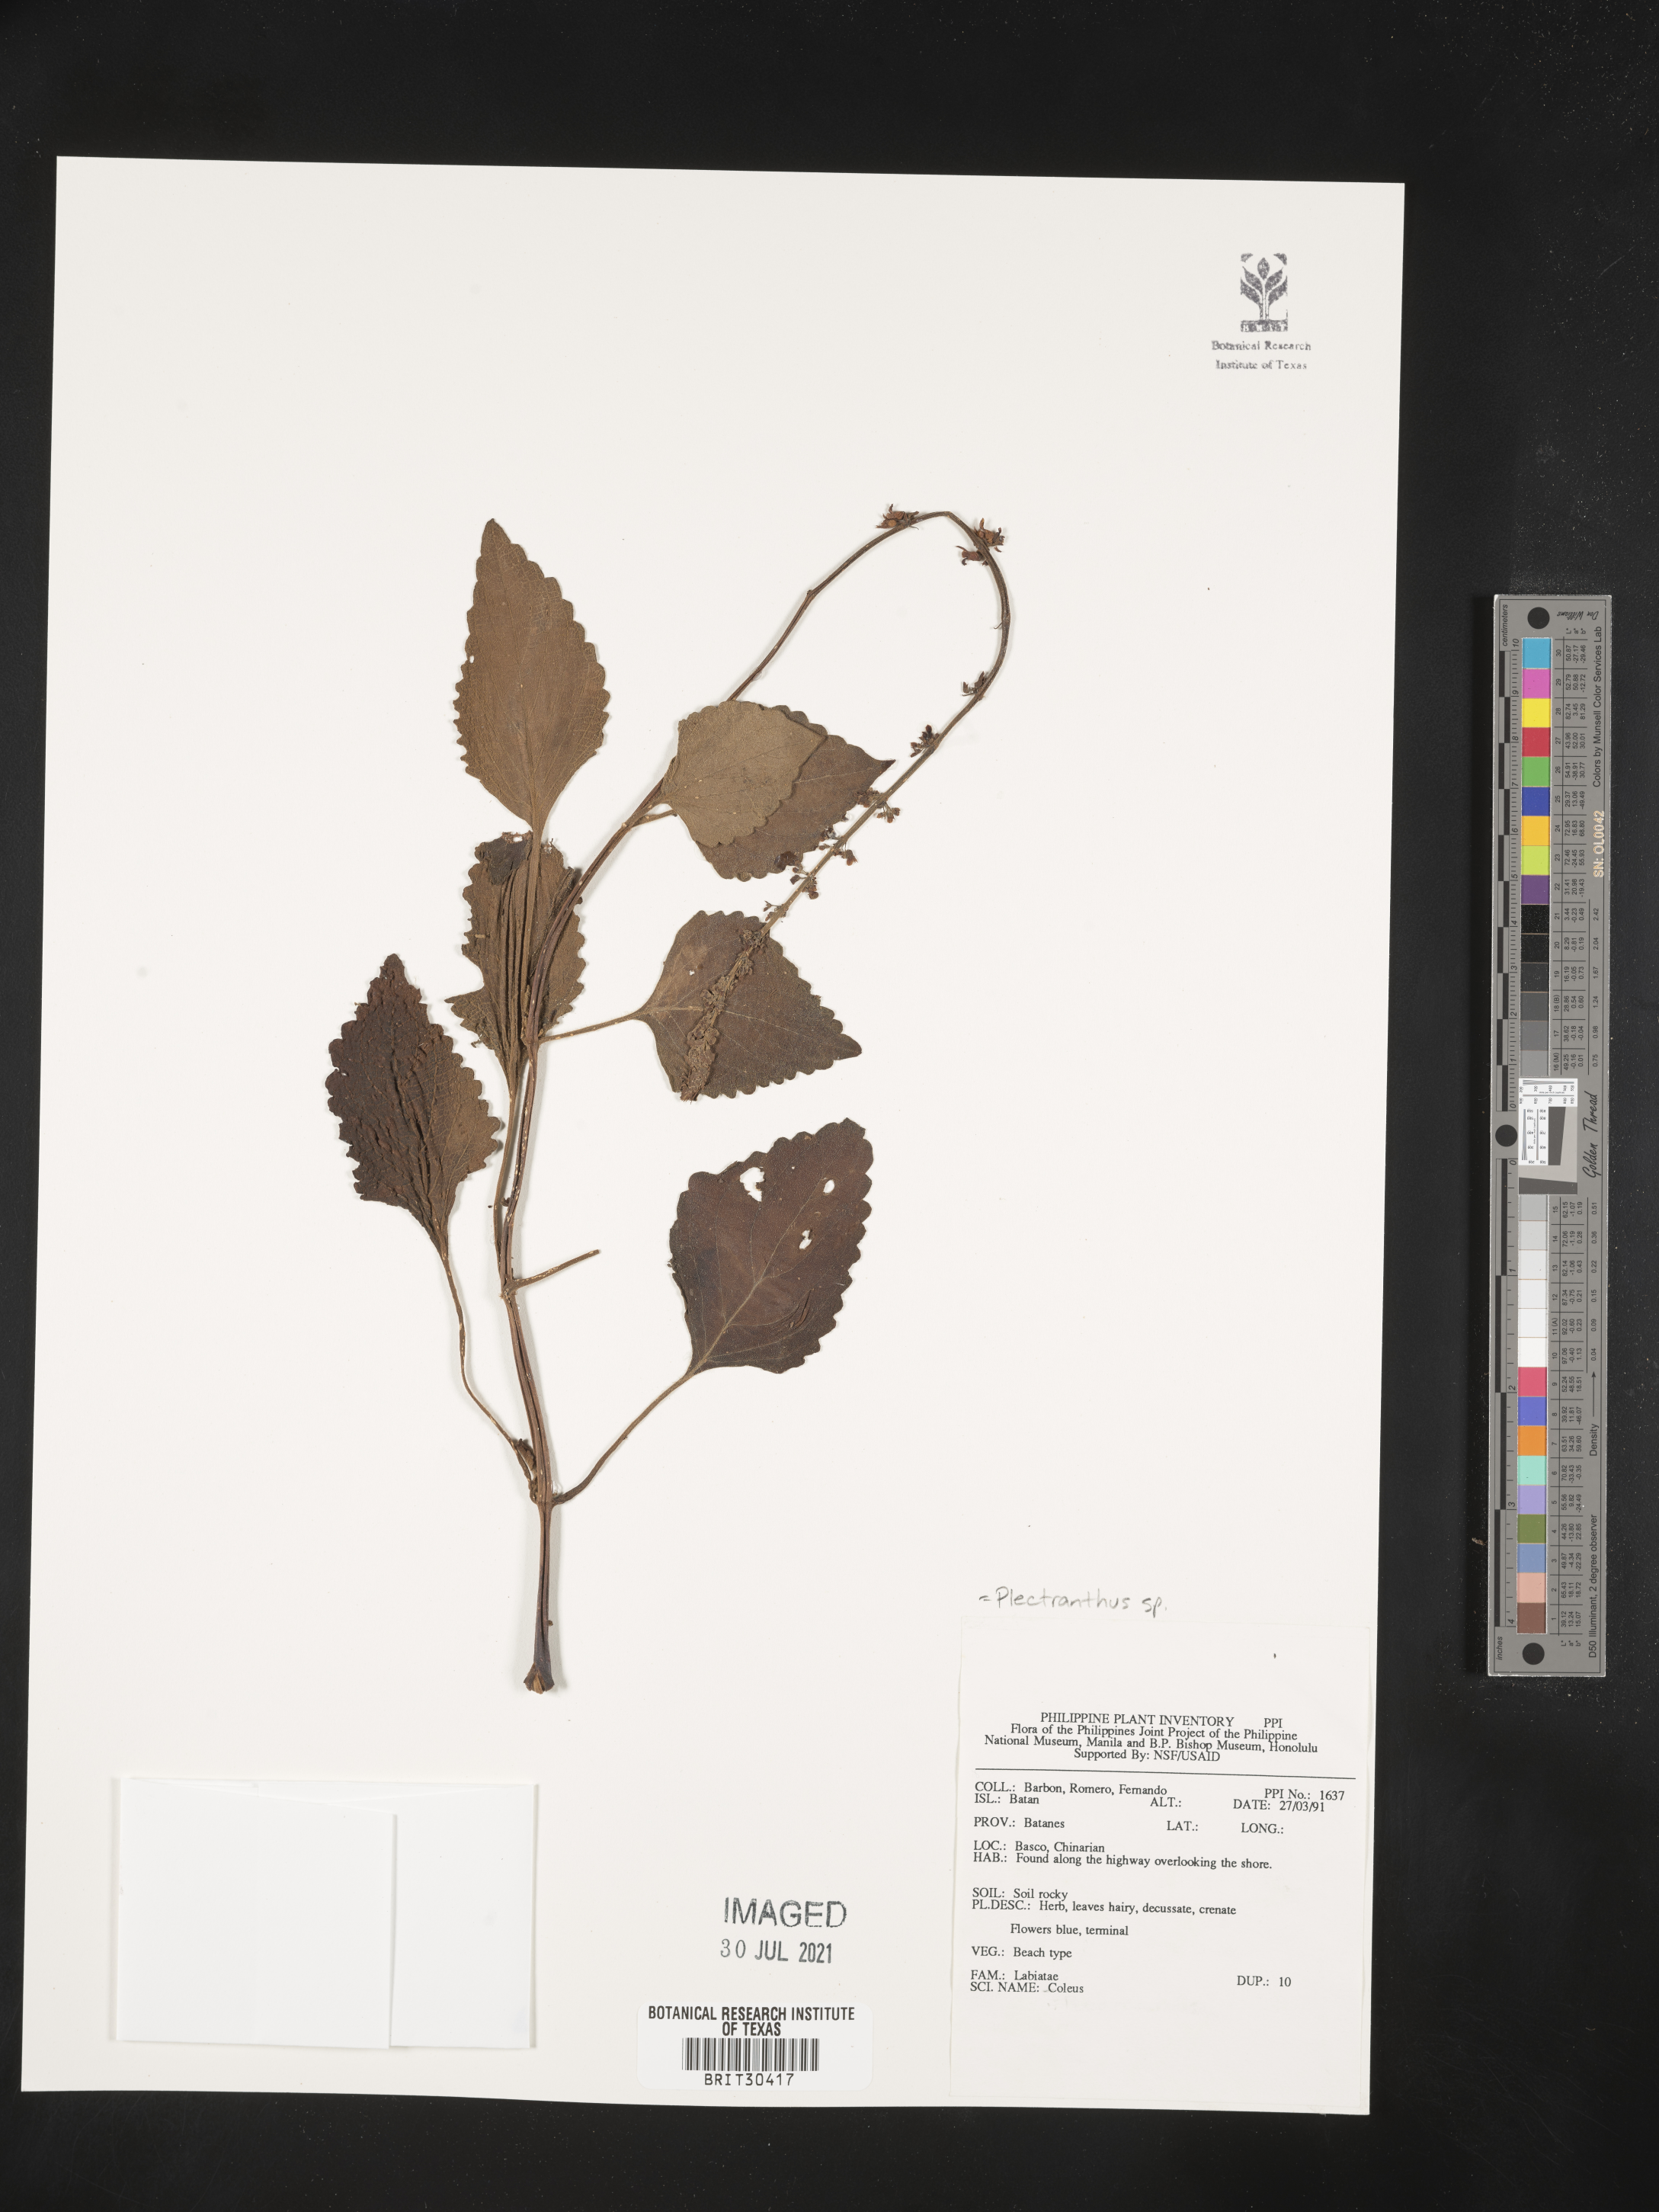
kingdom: Plantae
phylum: Tracheophyta
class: Magnoliopsida
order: Lamiales
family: Lamiaceae
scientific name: Lamiaceae
